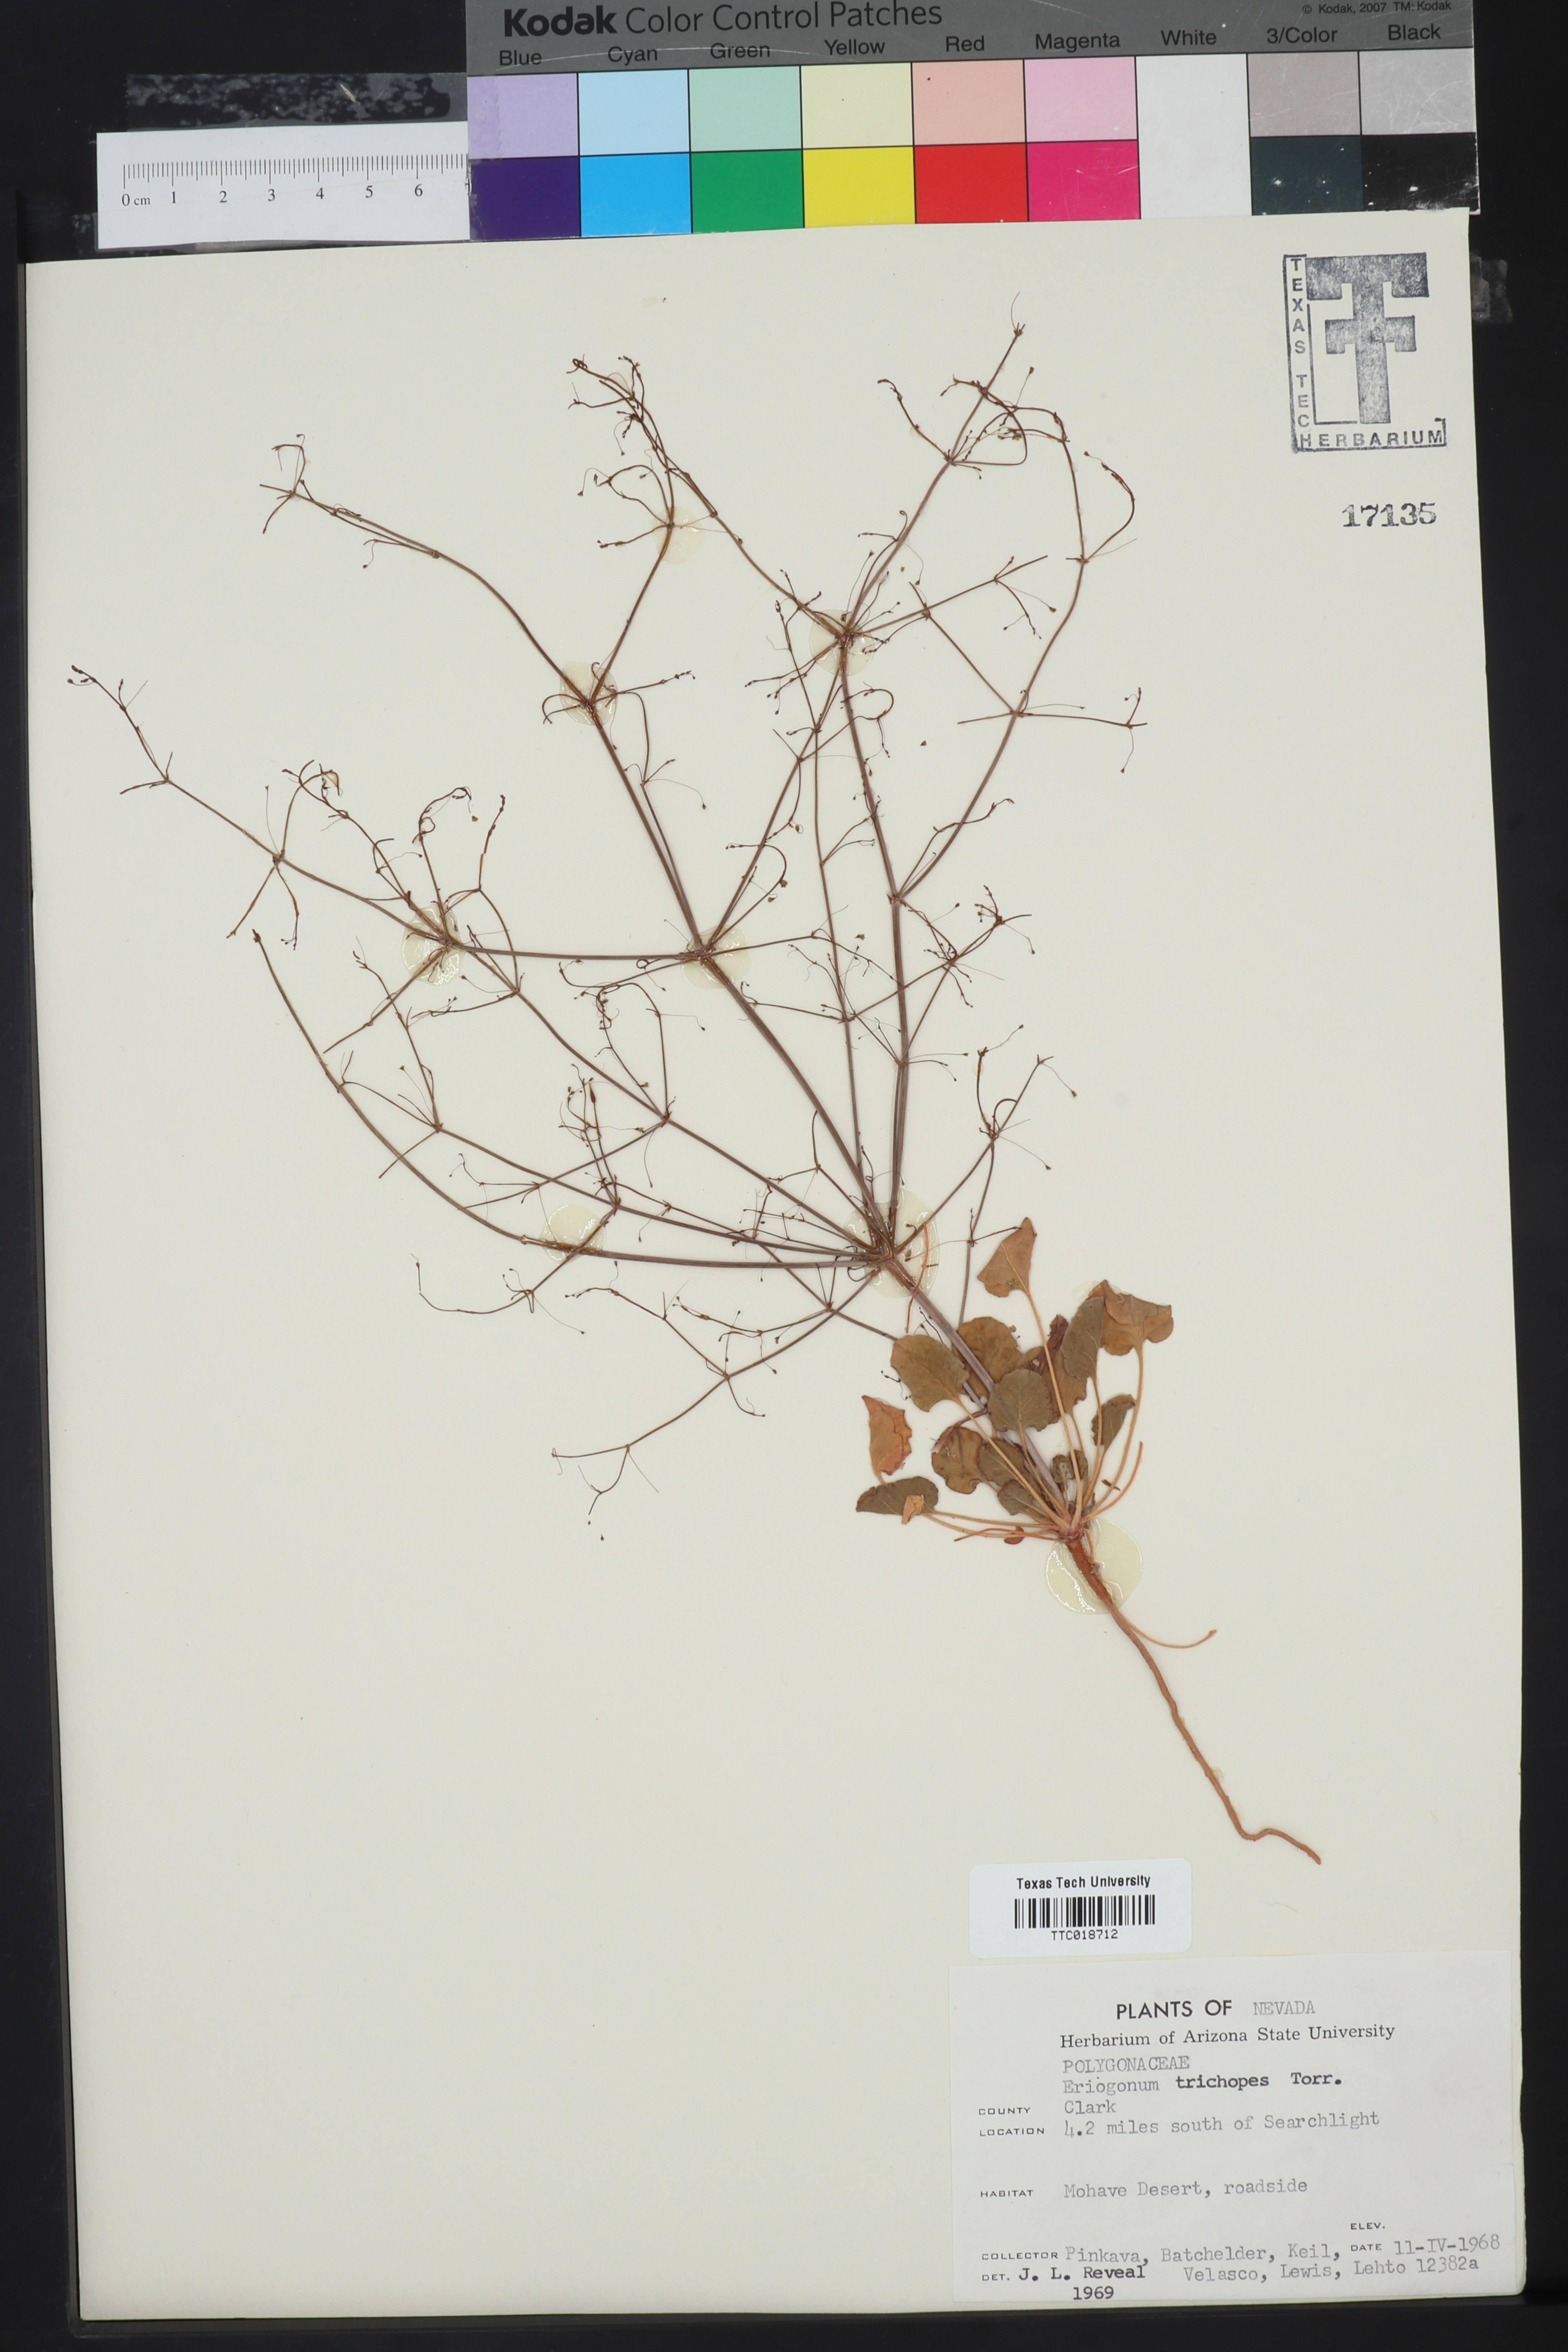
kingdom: Plantae
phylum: Tracheophyta
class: Magnoliopsida
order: Caryophyllales
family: Polygonaceae
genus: Eriogonum
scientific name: Eriogonum trichopes
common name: Little desert trumpet
